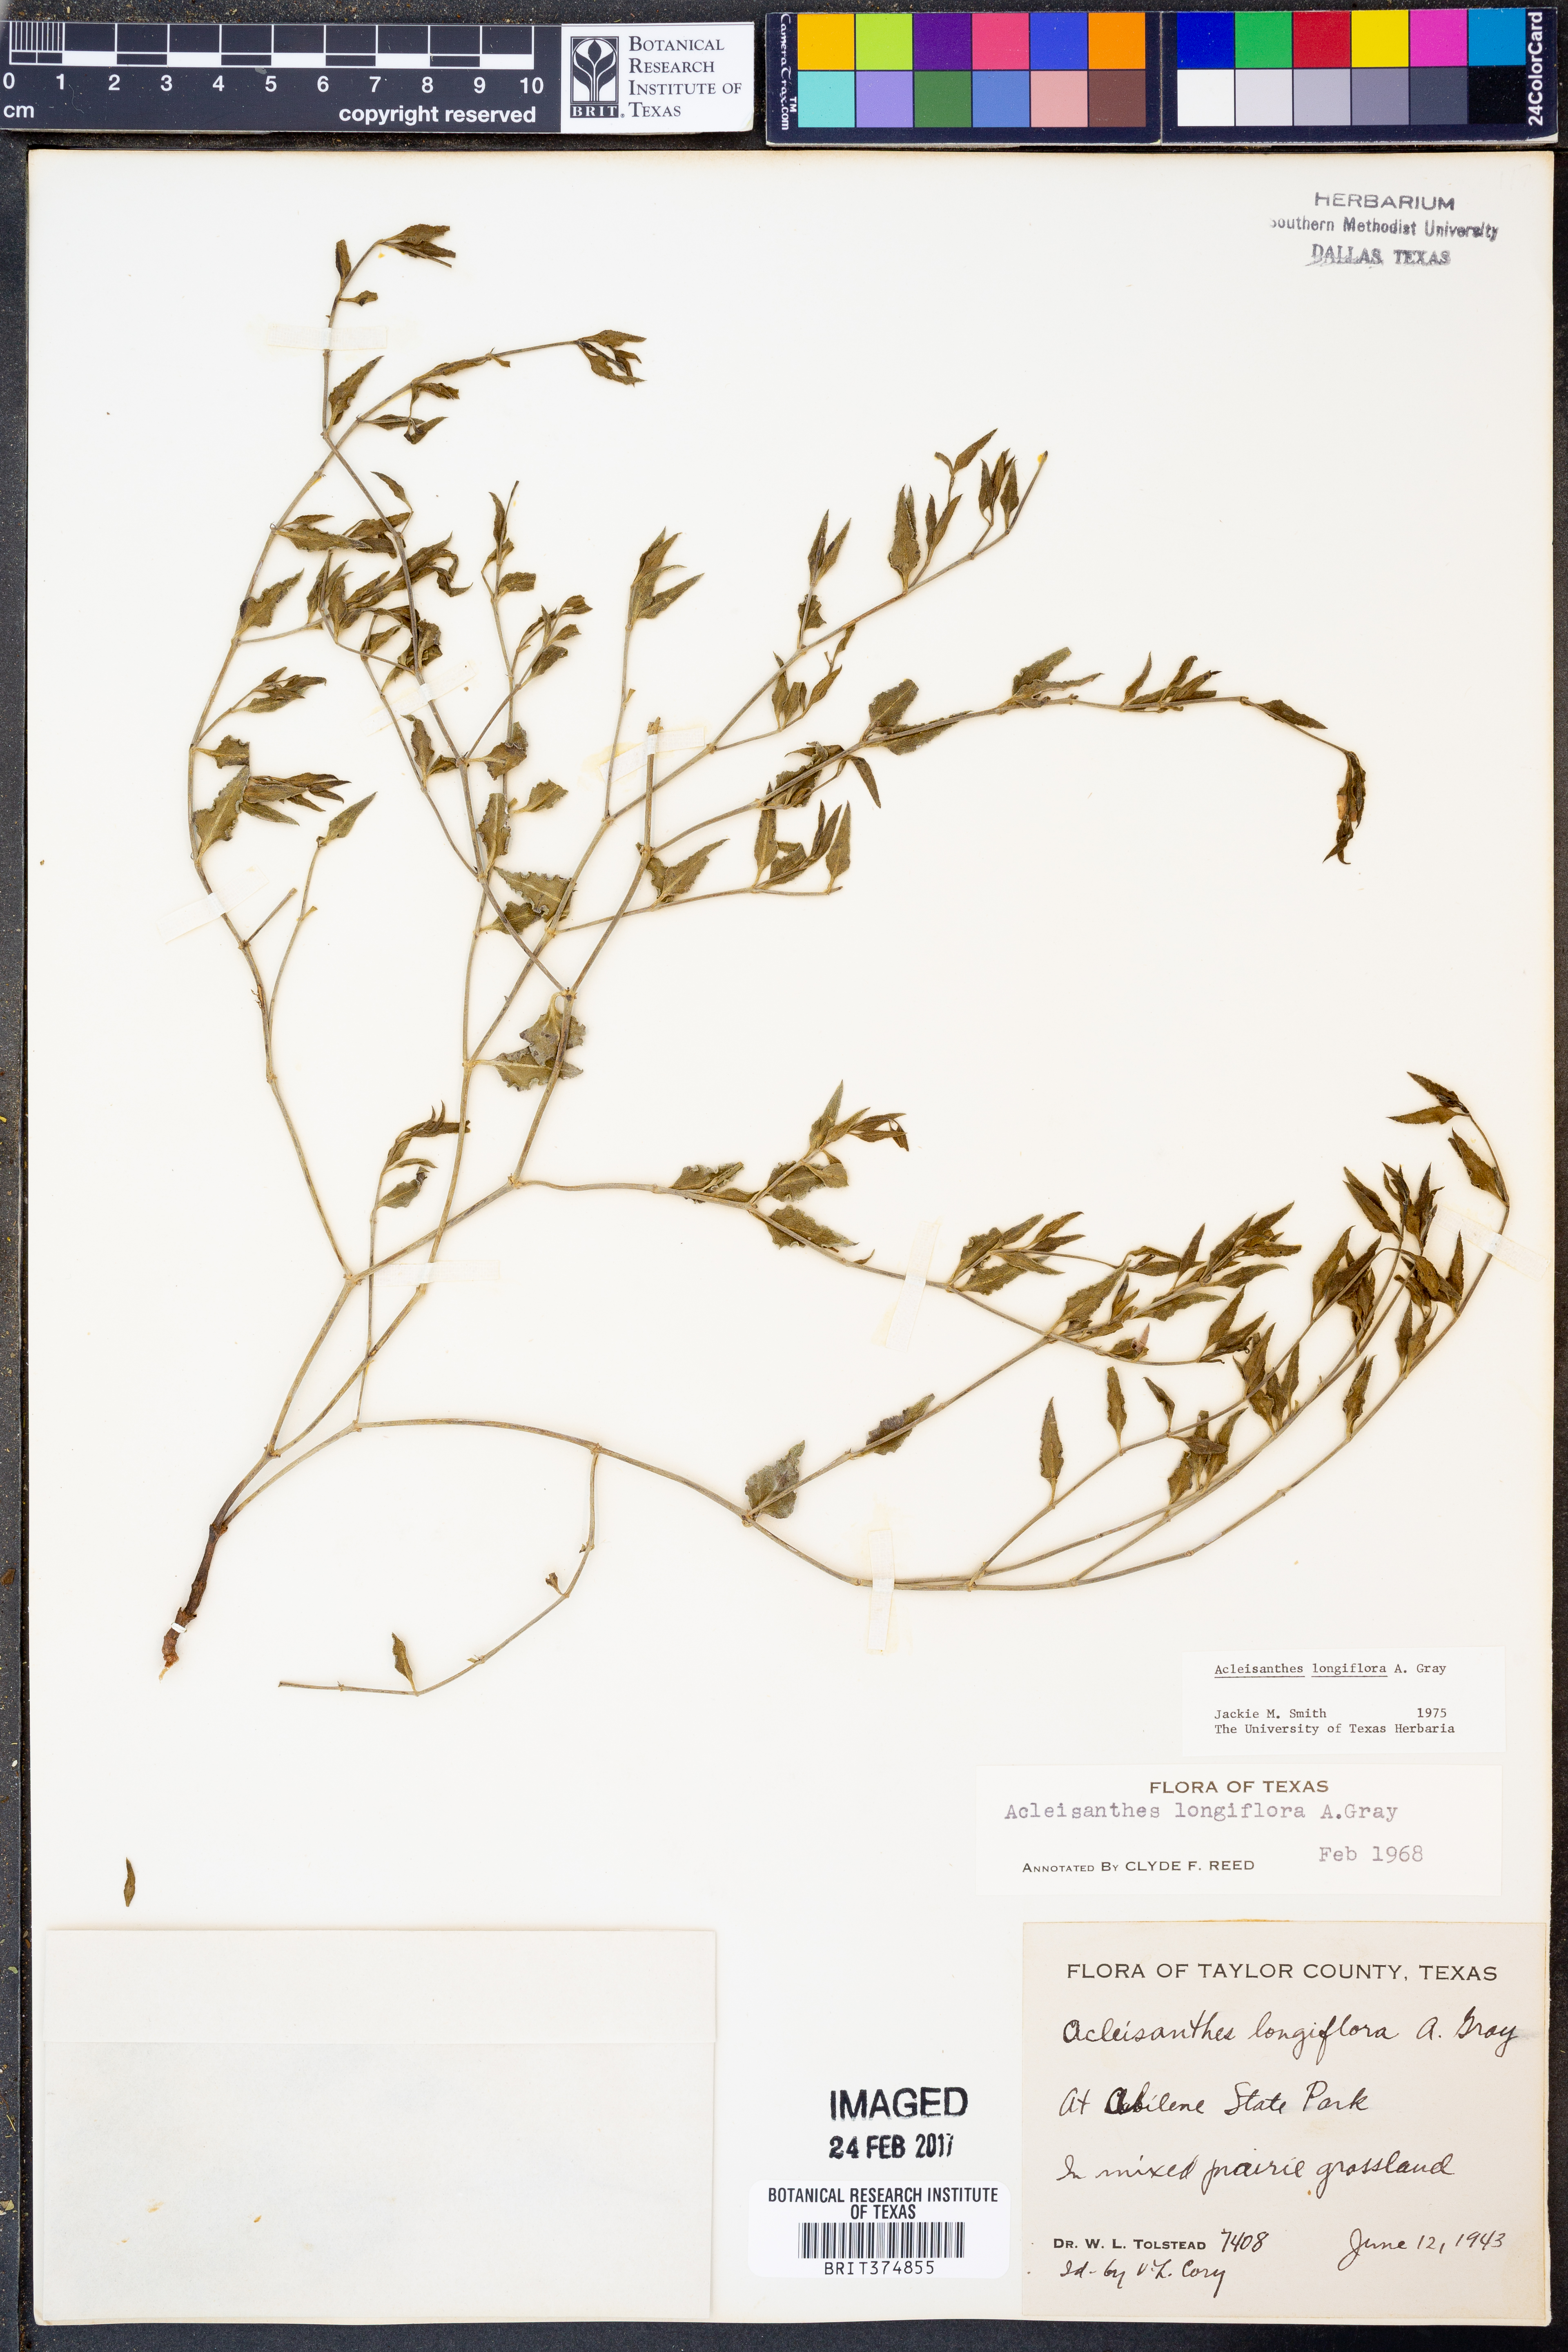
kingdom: Plantae
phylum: Tracheophyta
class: Magnoliopsida
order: Caryophyllales
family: Nyctaginaceae
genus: Acleisanthes
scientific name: Acleisanthes longiflora
